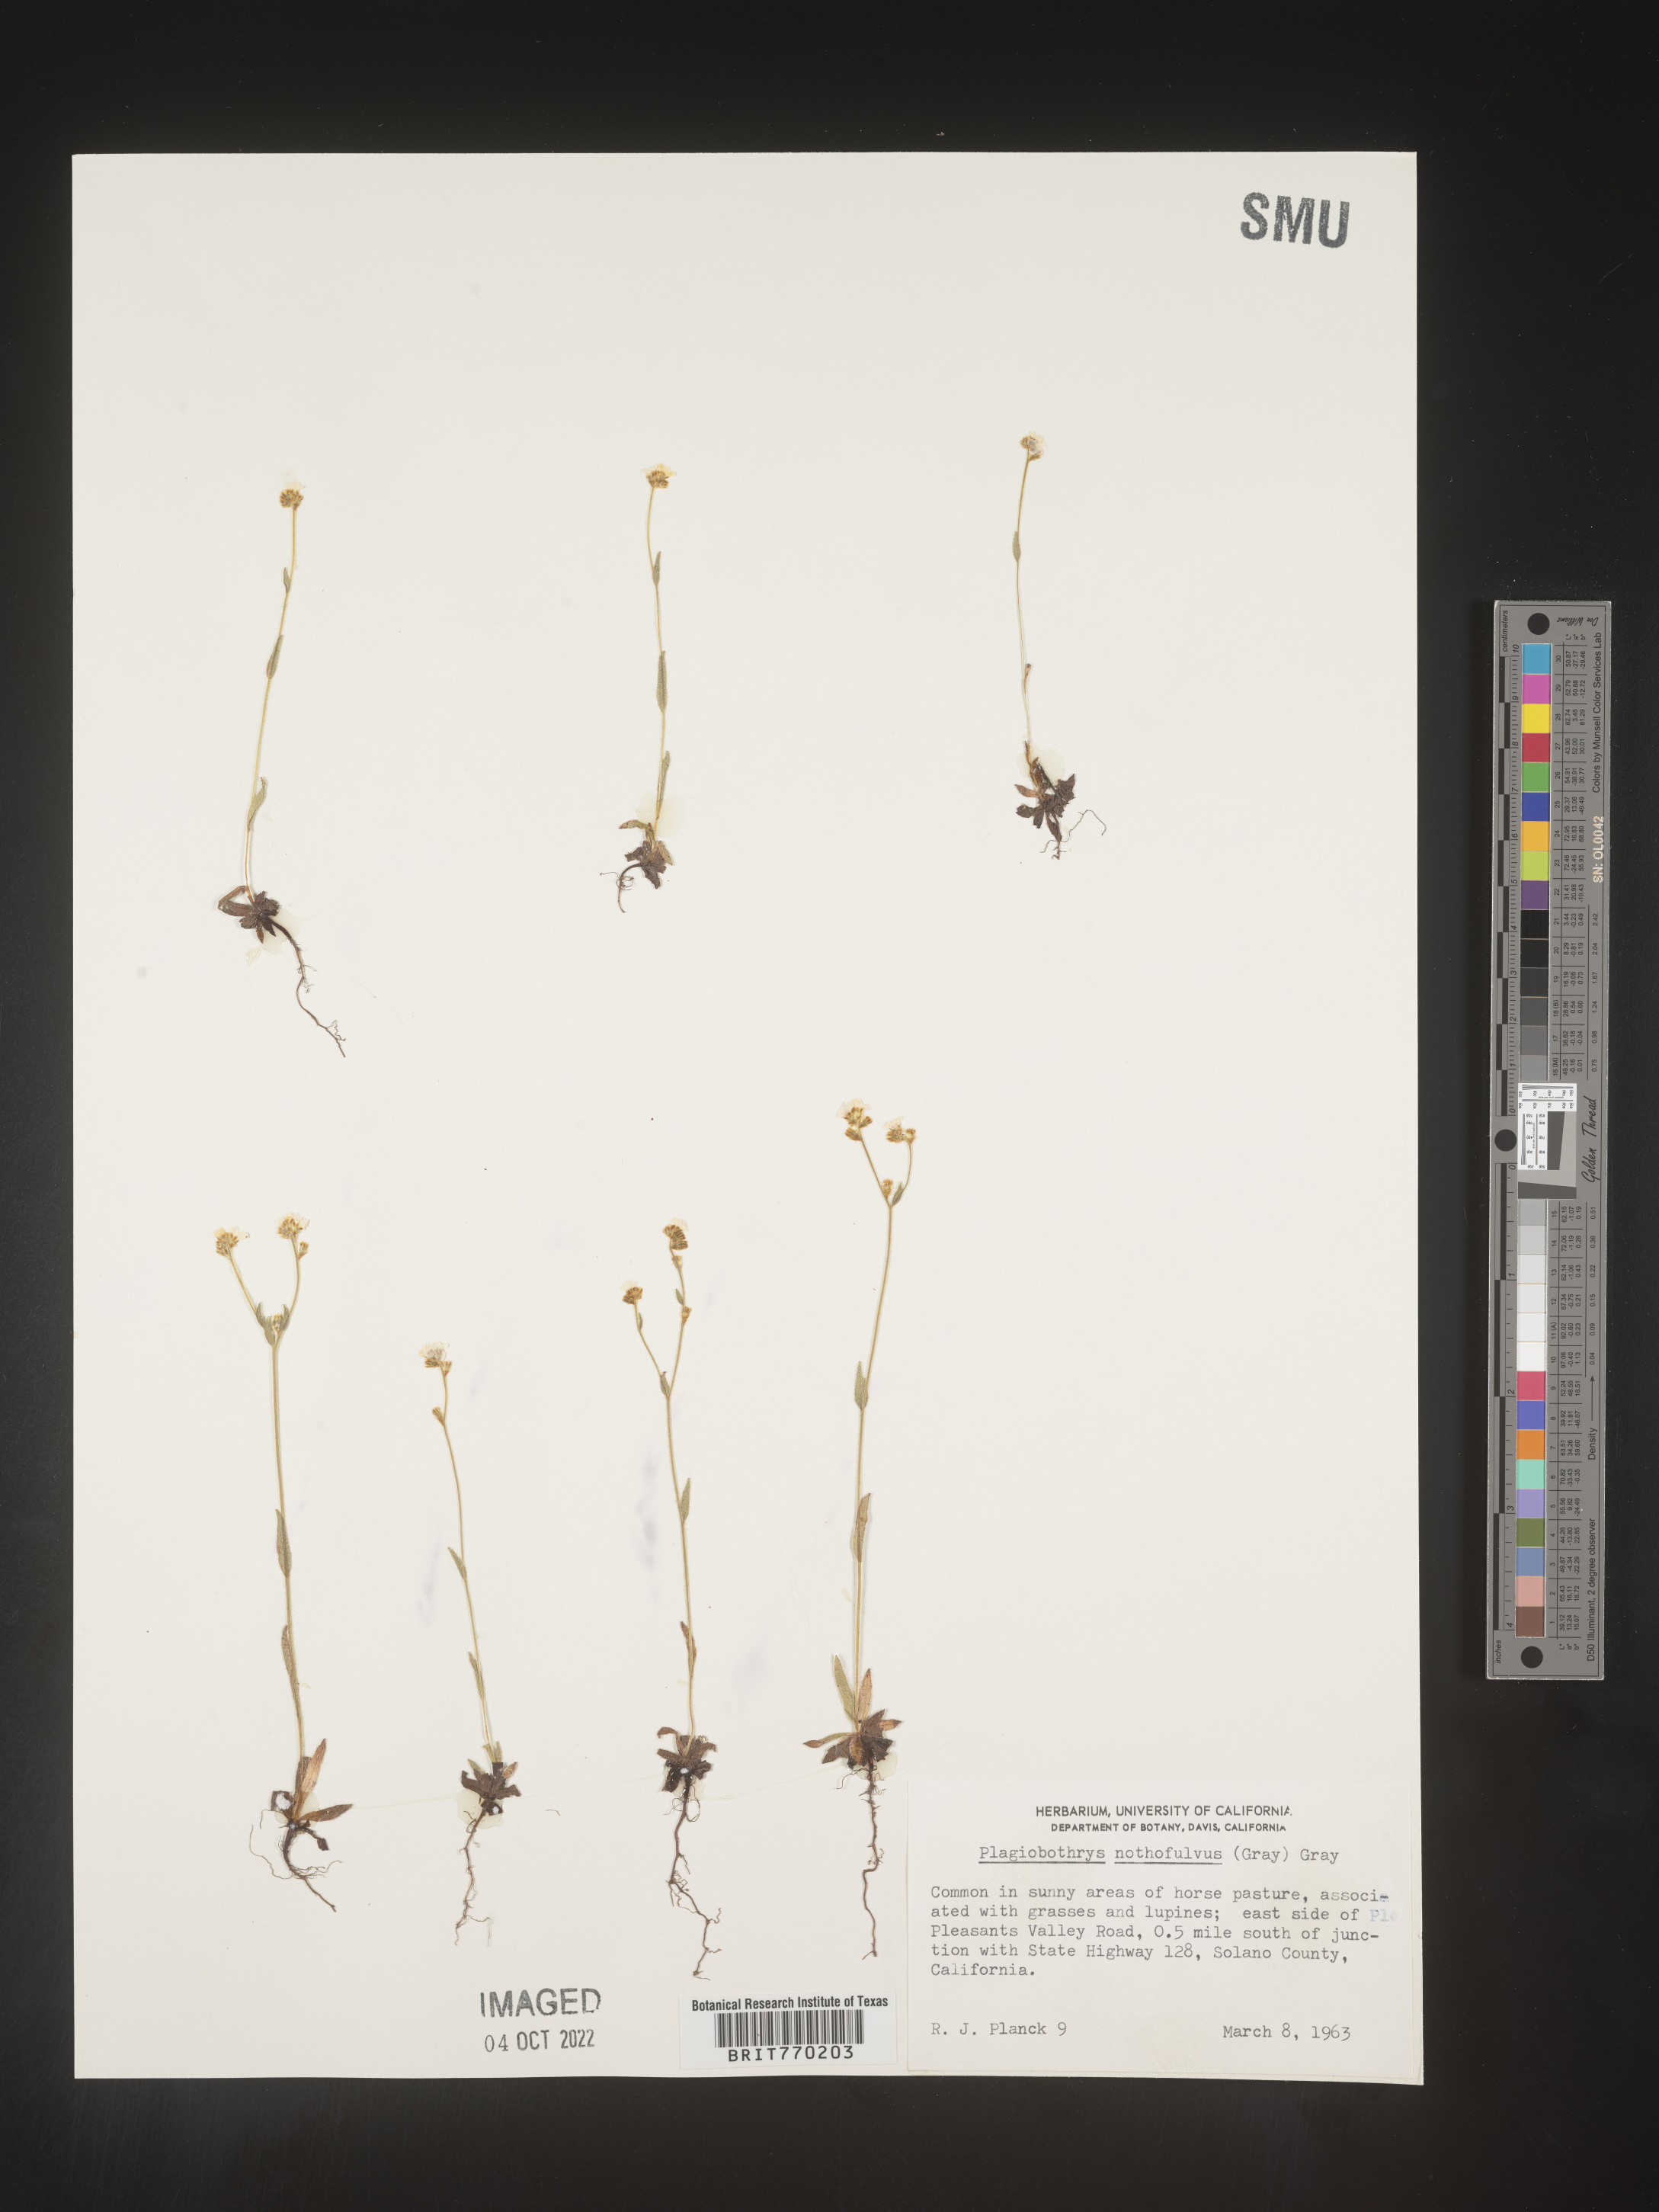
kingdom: Plantae
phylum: Tracheophyta
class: Magnoliopsida
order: Boraginales
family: Boraginaceae
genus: Plagiobothrys
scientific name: Plagiobothrys
